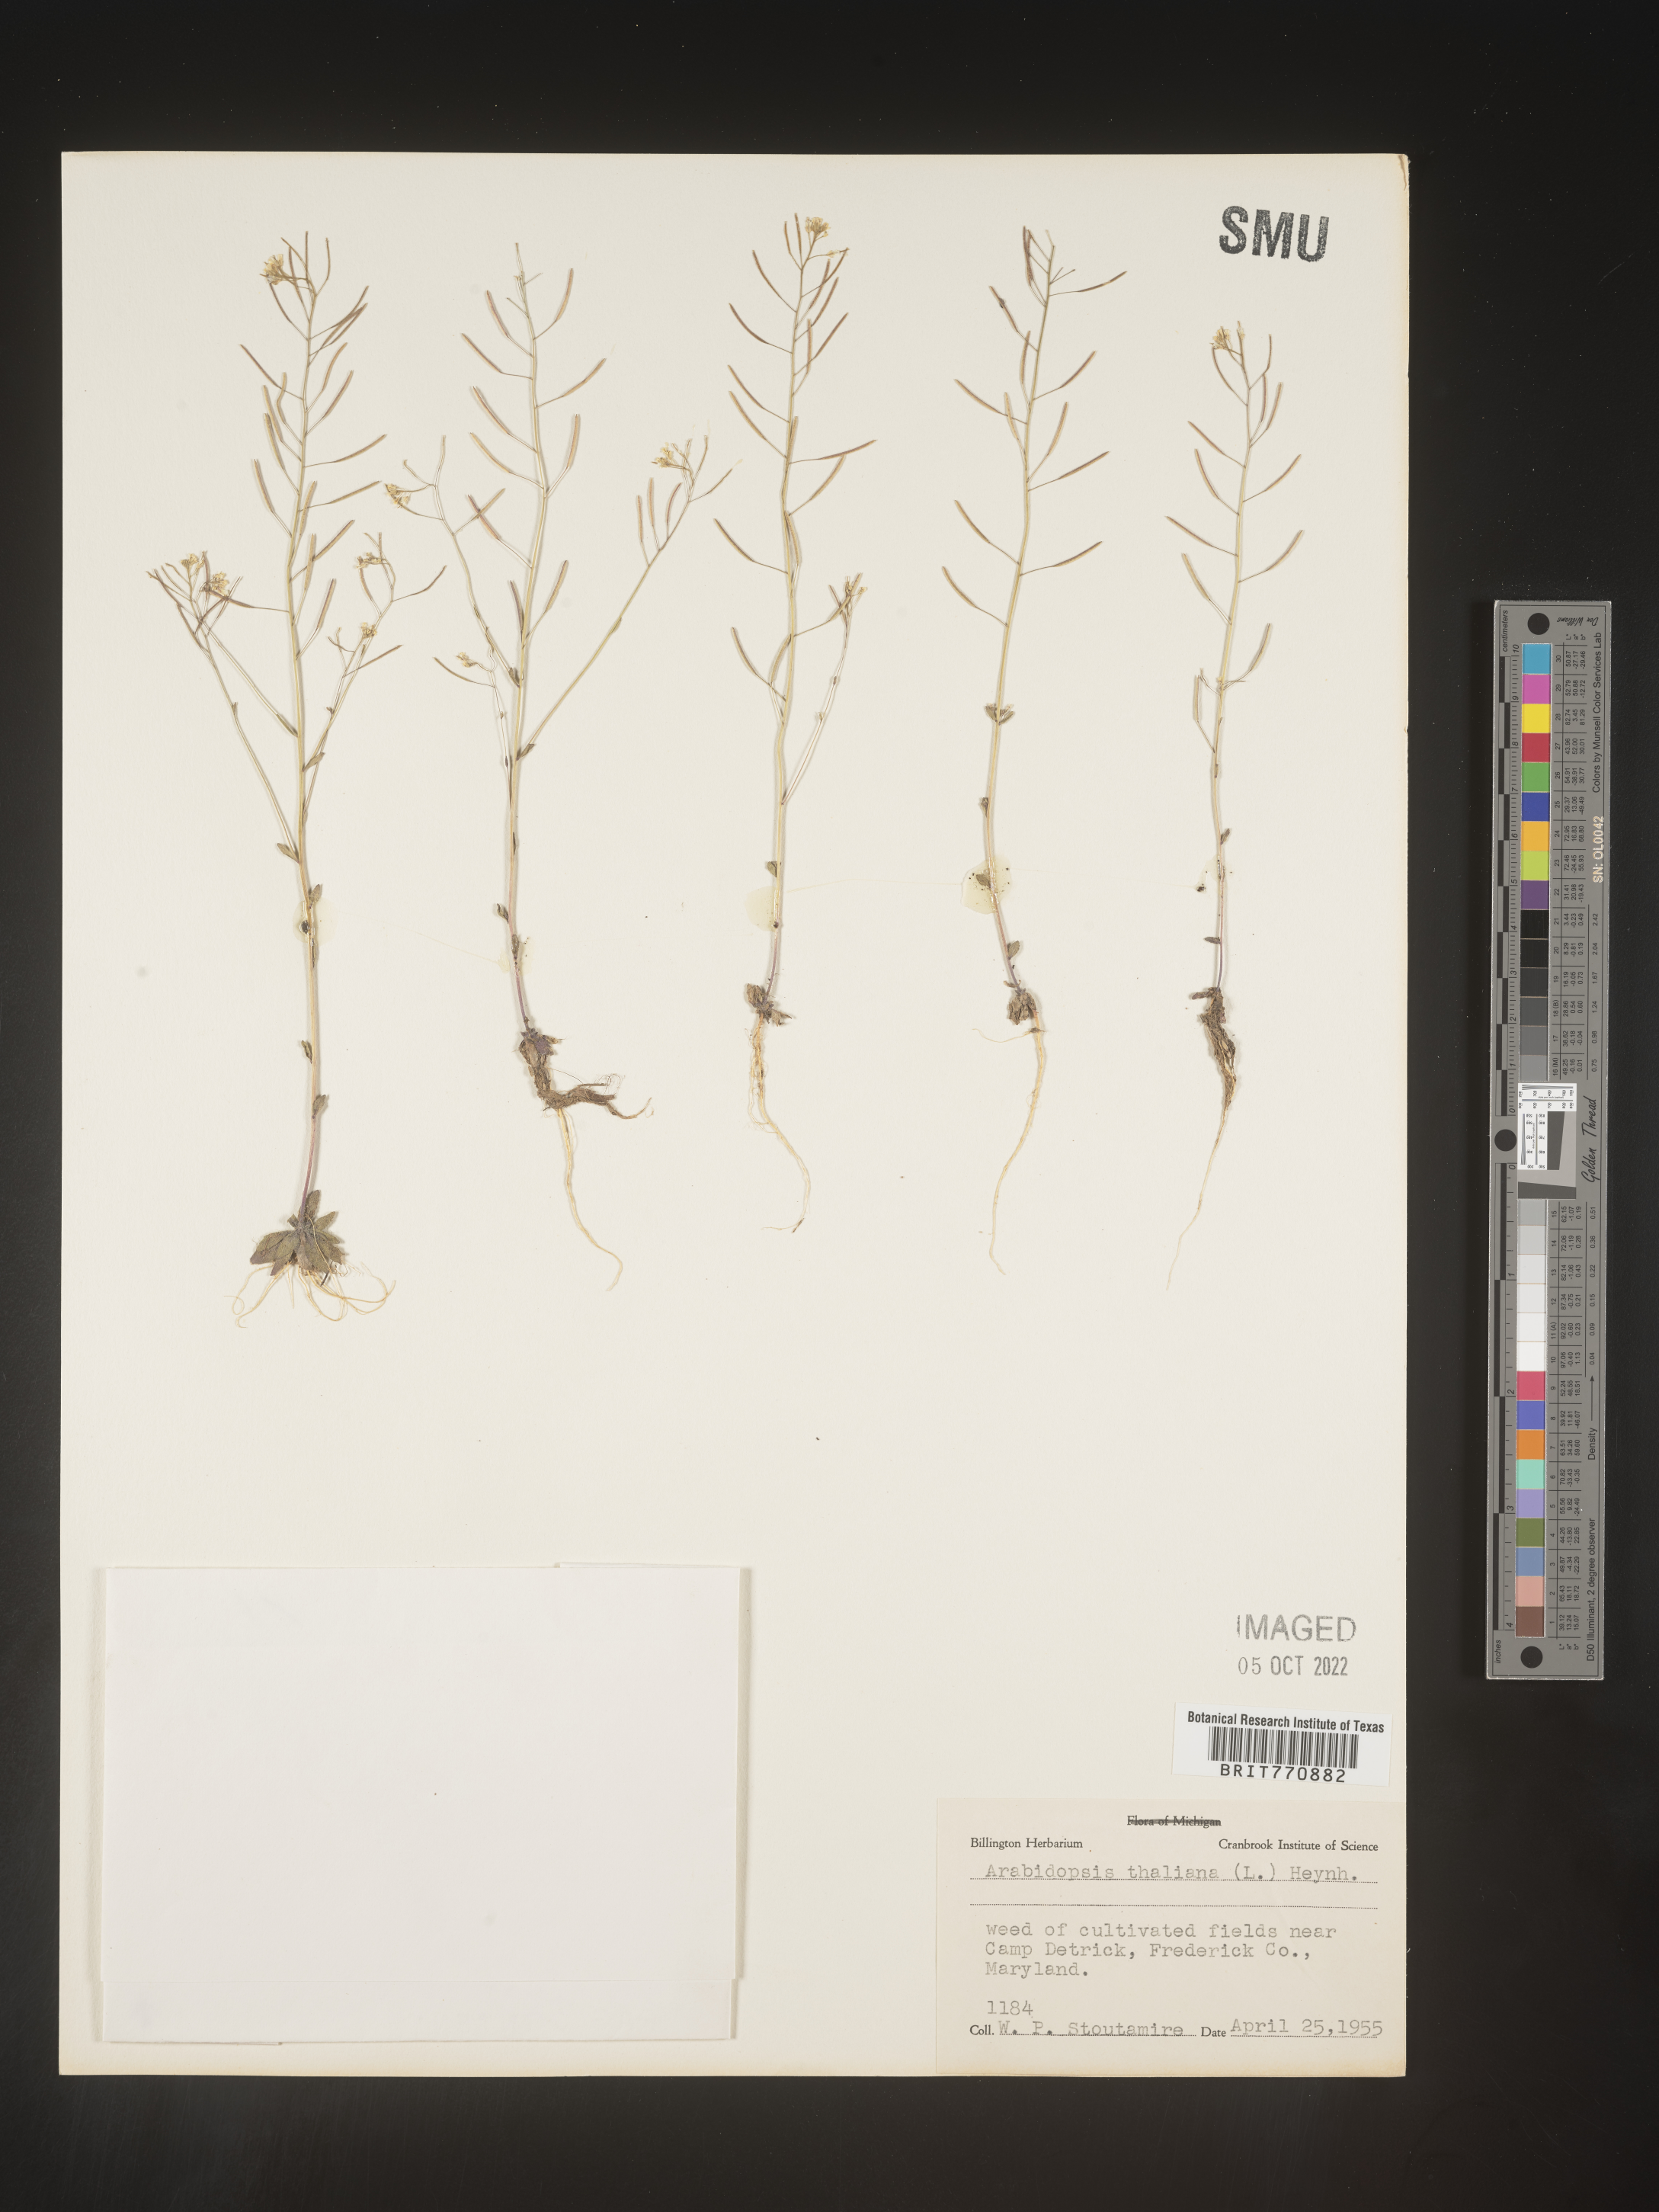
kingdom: Plantae
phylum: Tracheophyta
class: Magnoliopsida
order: Brassicales
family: Brassicaceae
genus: Arabidopsis
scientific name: Arabidopsis thaliana
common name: Thale cress
